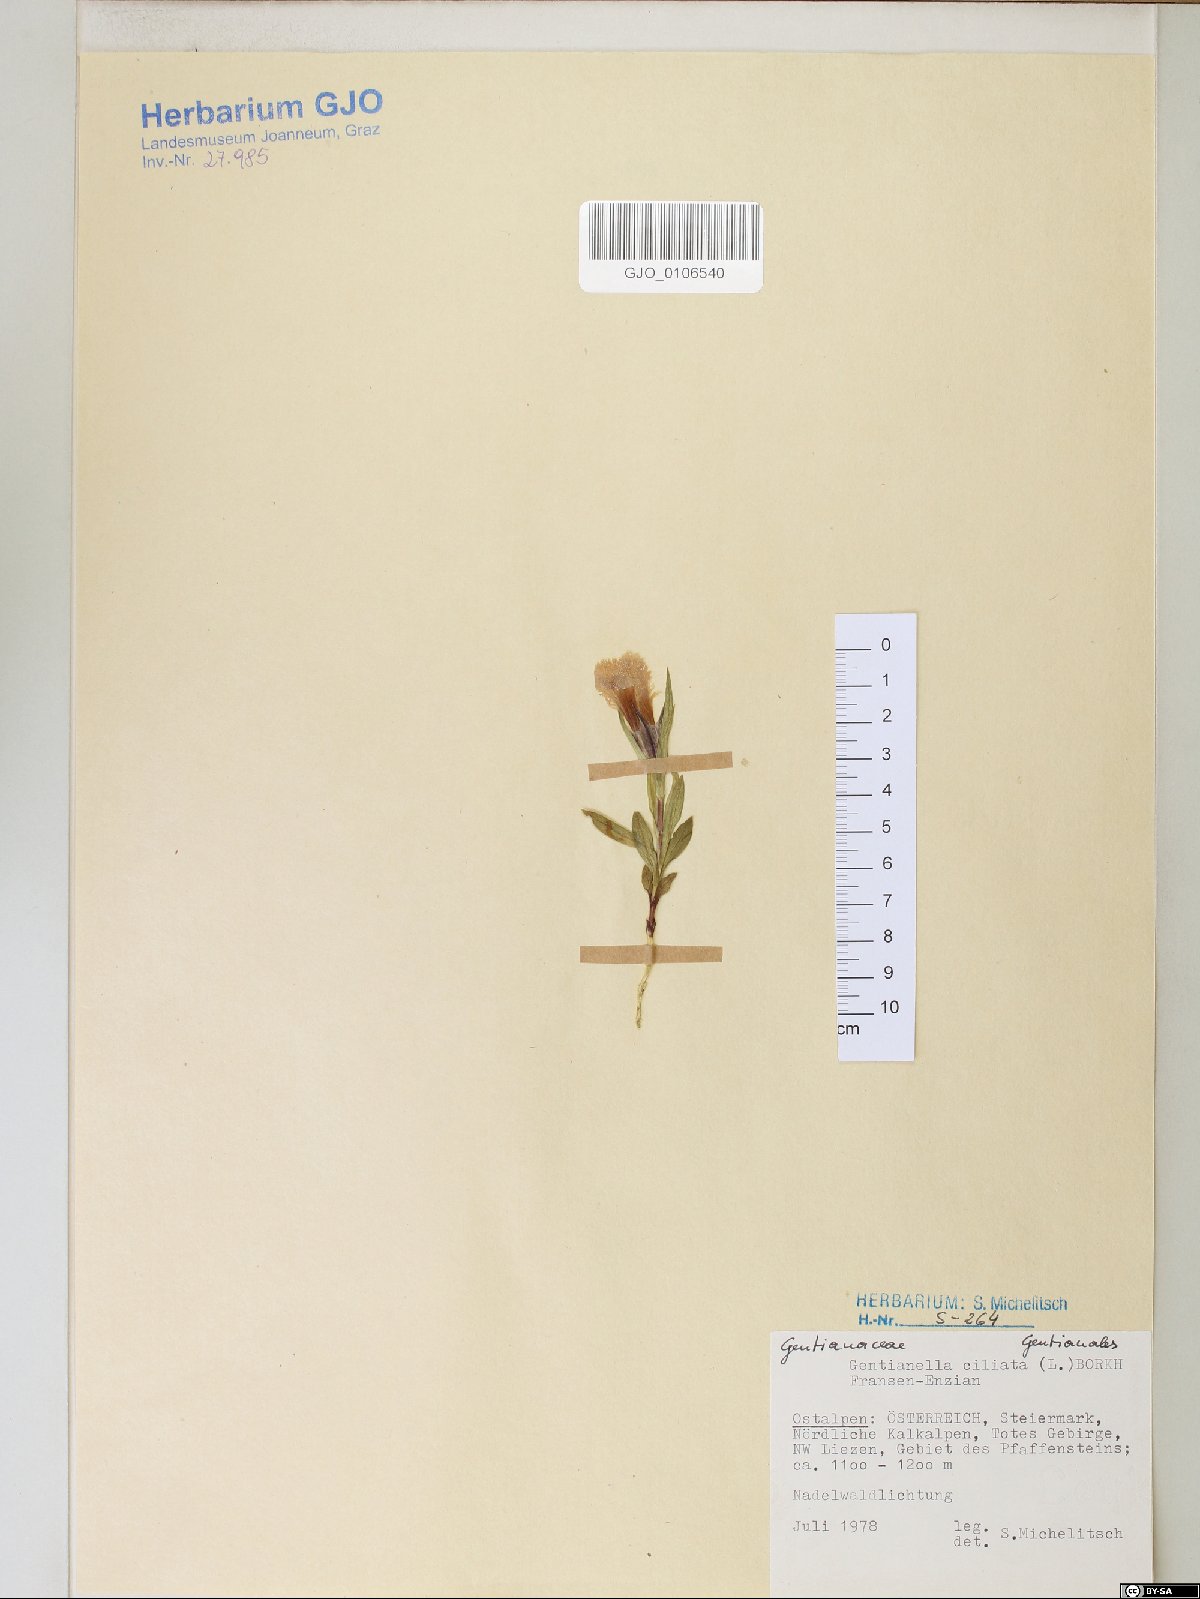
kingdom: Plantae
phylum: Tracheophyta
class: Magnoliopsida
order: Gentianales
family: Gentianaceae
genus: Gentianopsis
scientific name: Gentianopsis ciliata
